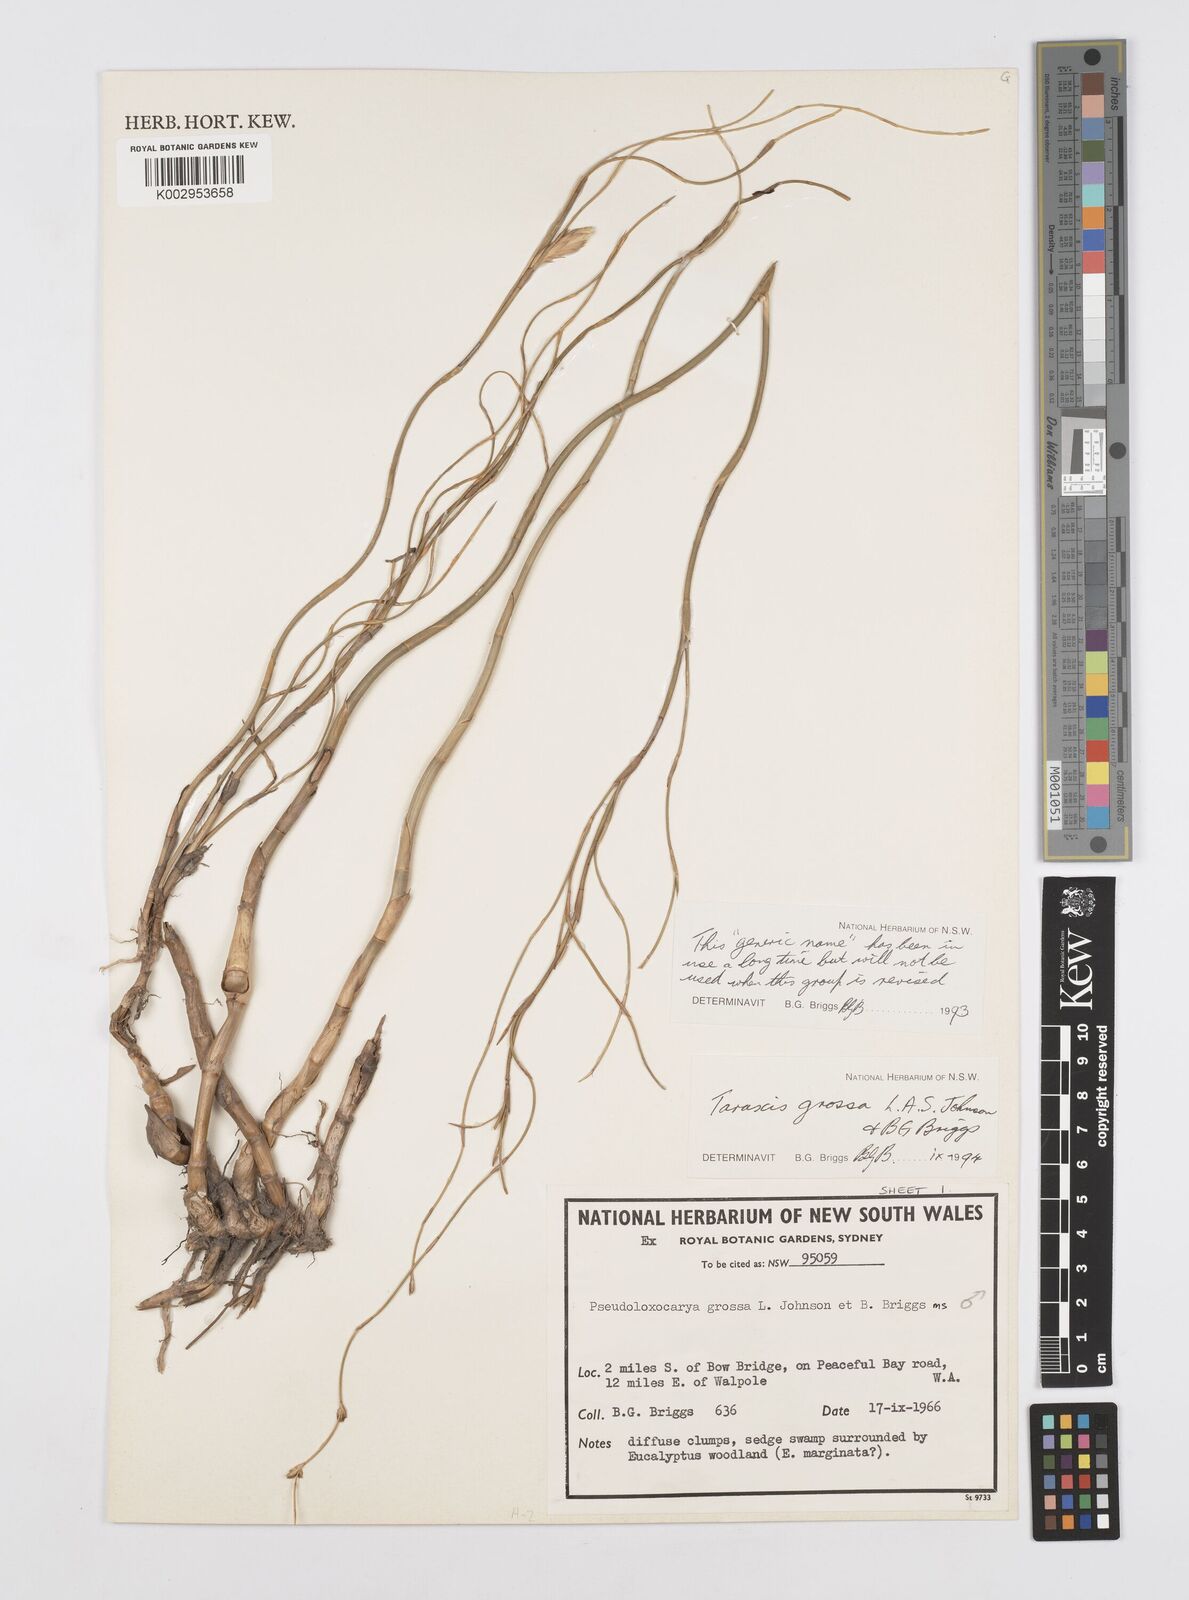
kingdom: Plantae
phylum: Tracheophyta
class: Liliopsida
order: Poales
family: Restionaceae
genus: Taraxis
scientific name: Taraxis grossa
